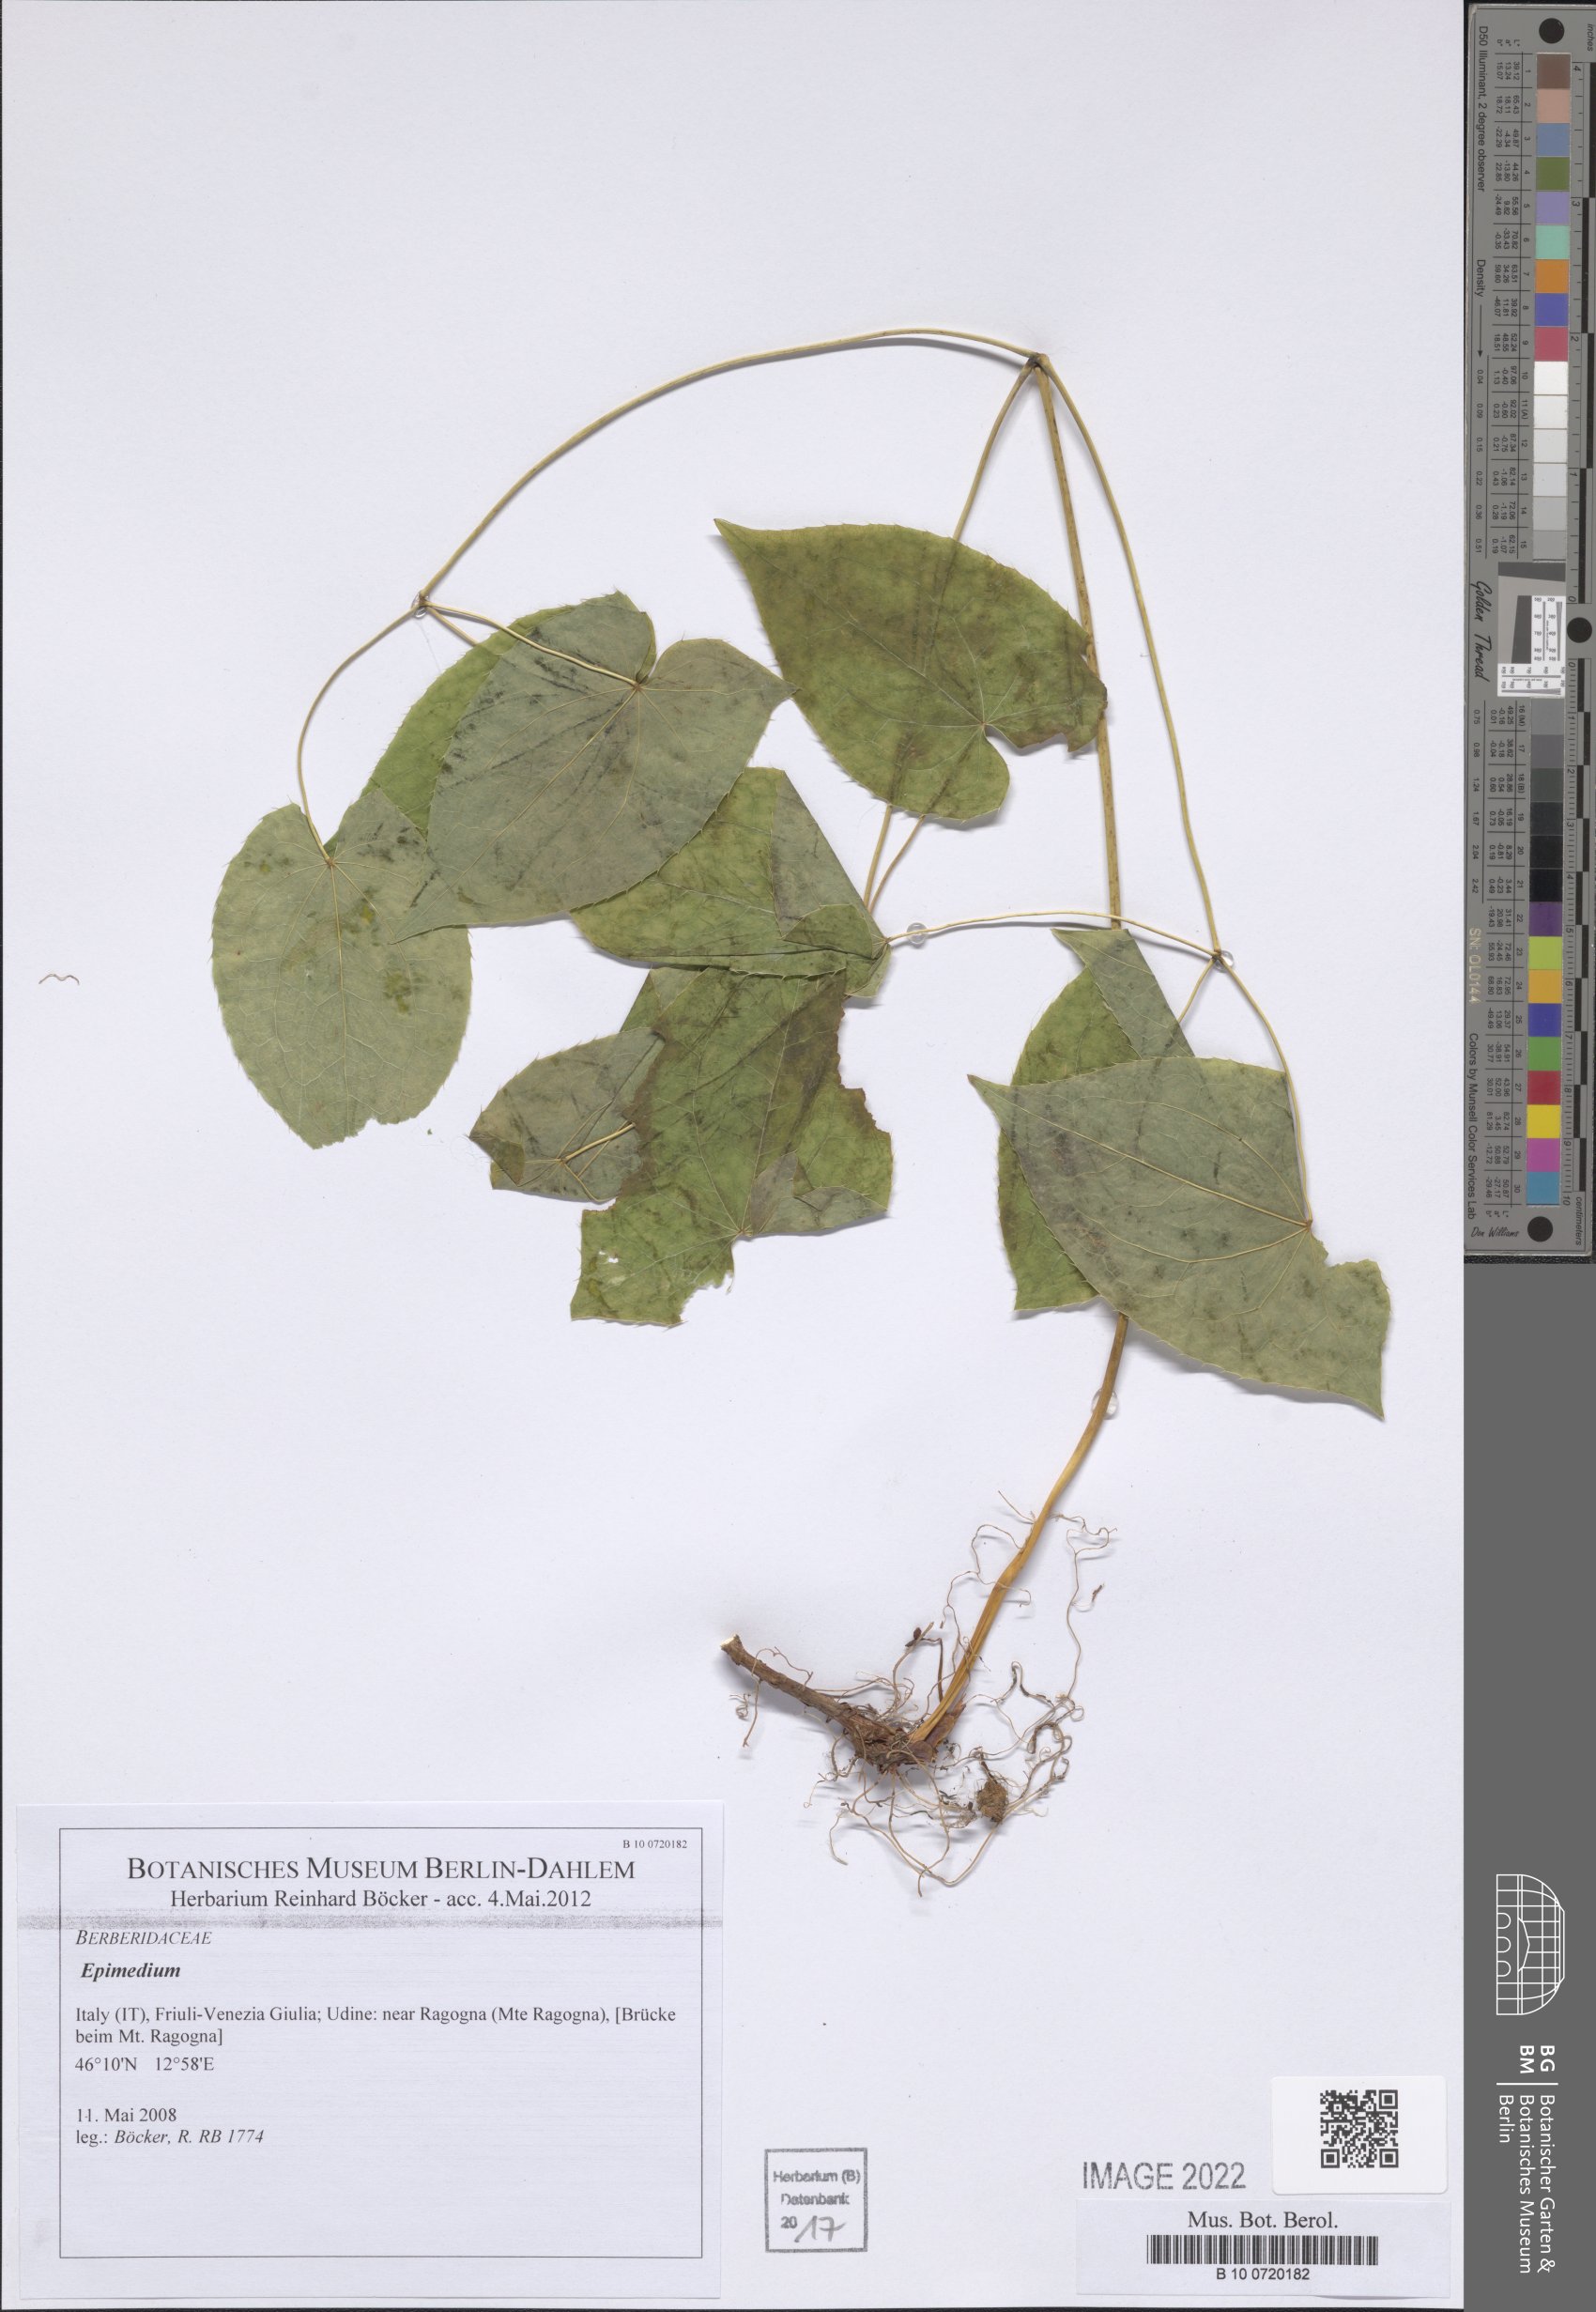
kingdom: Plantae
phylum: Tracheophyta
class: Magnoliopsida
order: Ranunculales
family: Berberidaceae
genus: Epimedium
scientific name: Epimedium
